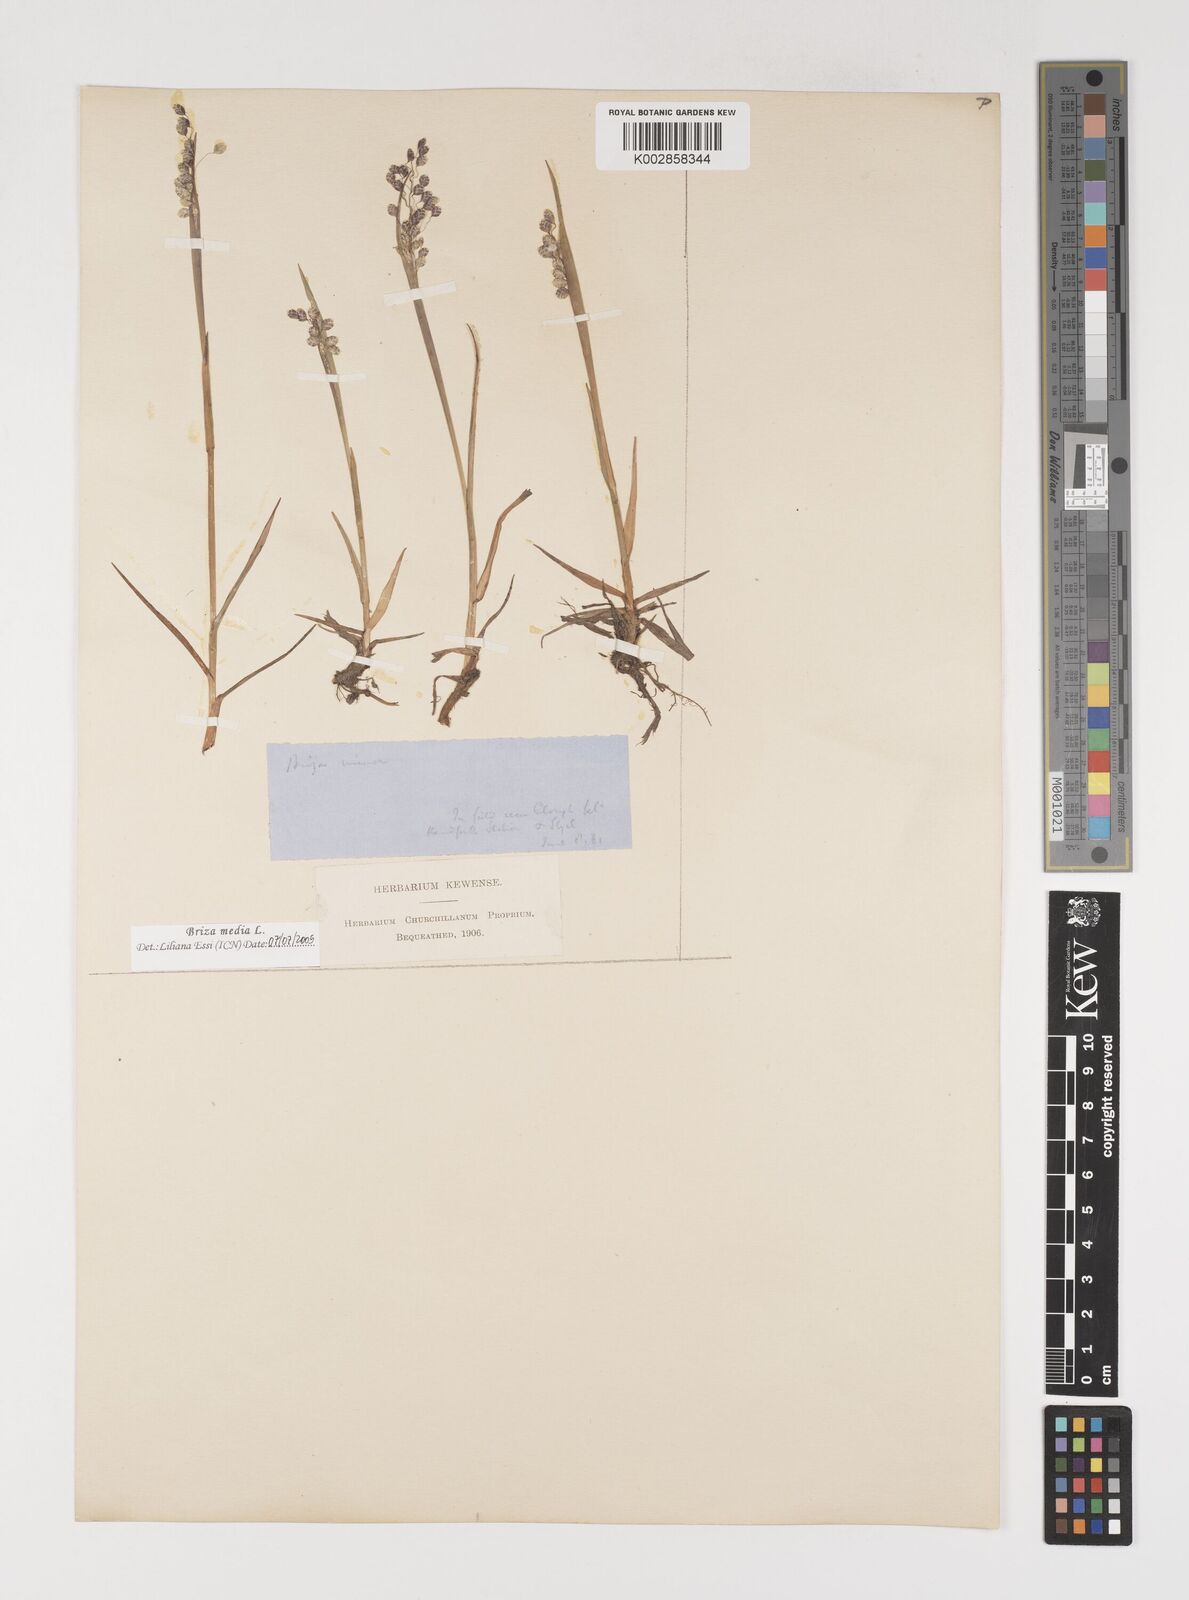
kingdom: Plantae
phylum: Tracheophyta
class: Liliopsida
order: Poales
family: Poaceae
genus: Briza
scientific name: Briza media
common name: Quaking grass
